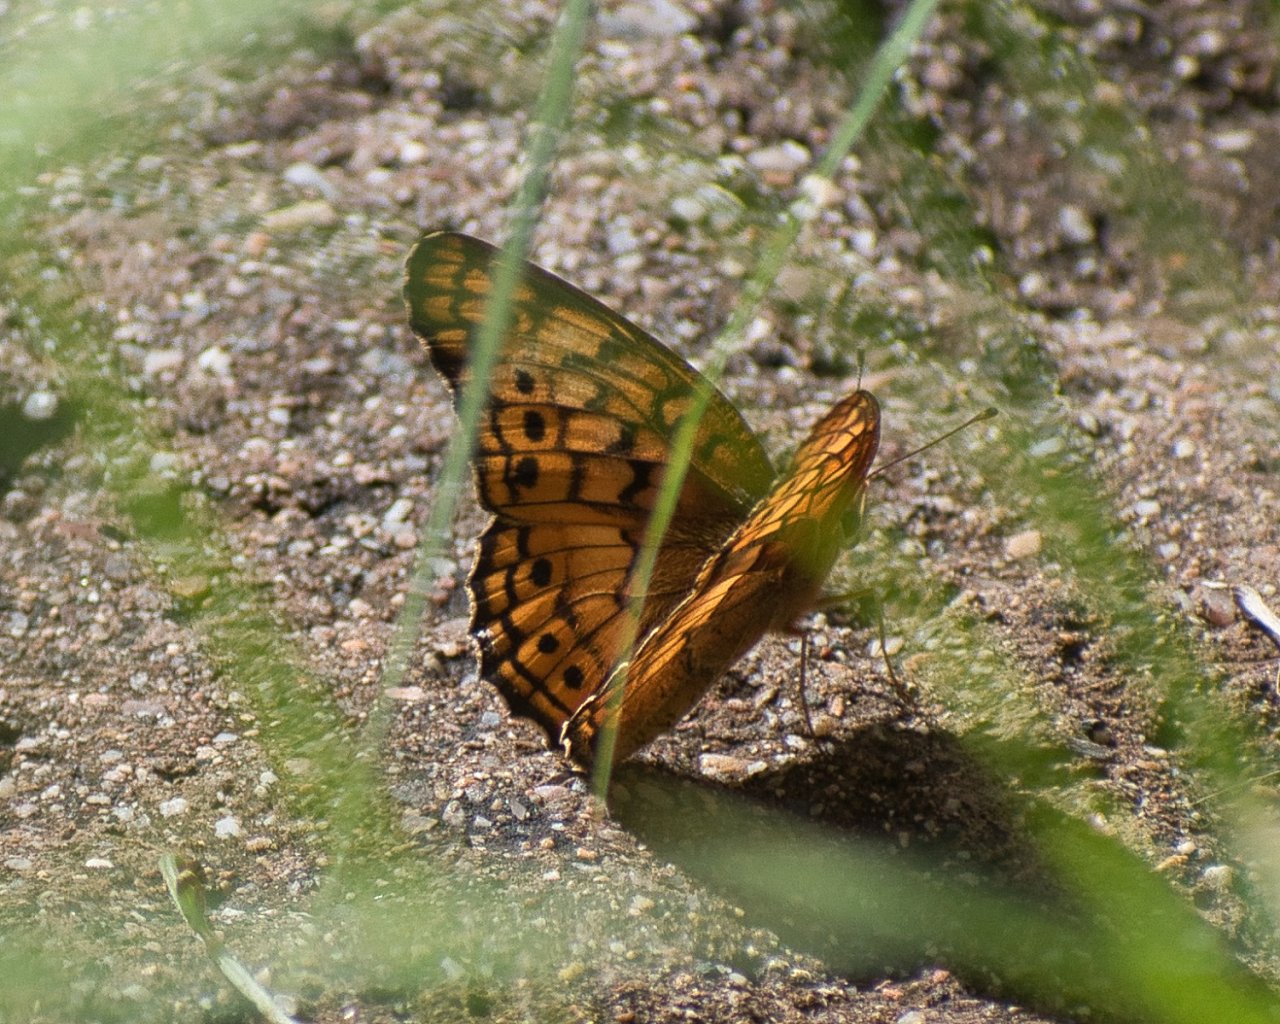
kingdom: Animalia
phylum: Arthropoda
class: Insecta
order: Lepidoptera
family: Nymphalidae
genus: Euptoieta
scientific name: Euptoieta claudia
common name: Variegated Fritillary
